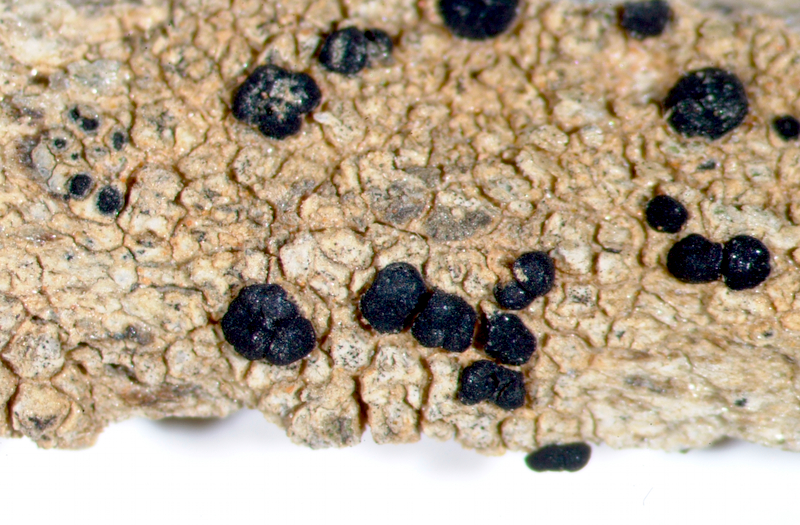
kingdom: Fungi
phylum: Ascomycota
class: Lecanoromycetes
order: Lecanorales
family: Lecanoraceae
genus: Lecidella
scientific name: Lecidella
